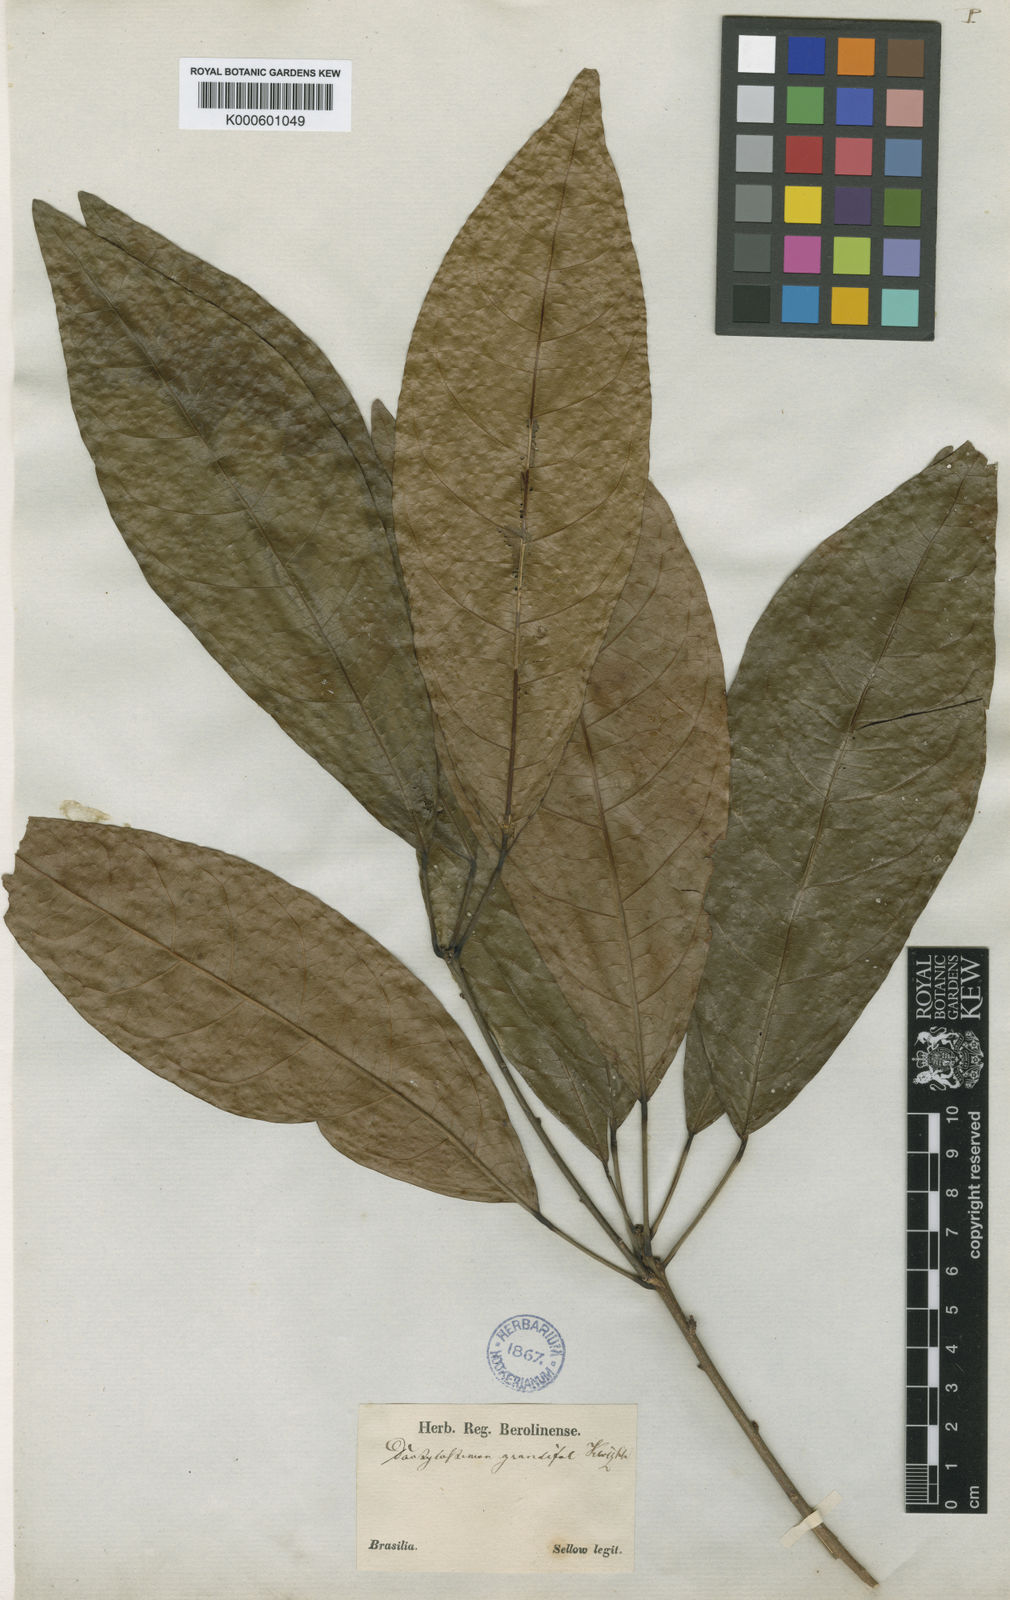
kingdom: Plantae
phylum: Tracheophyta
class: Magnoliopsida
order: Malpighiales
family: Euphorbiaceae
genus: Actinostemon
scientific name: Actinostemon
